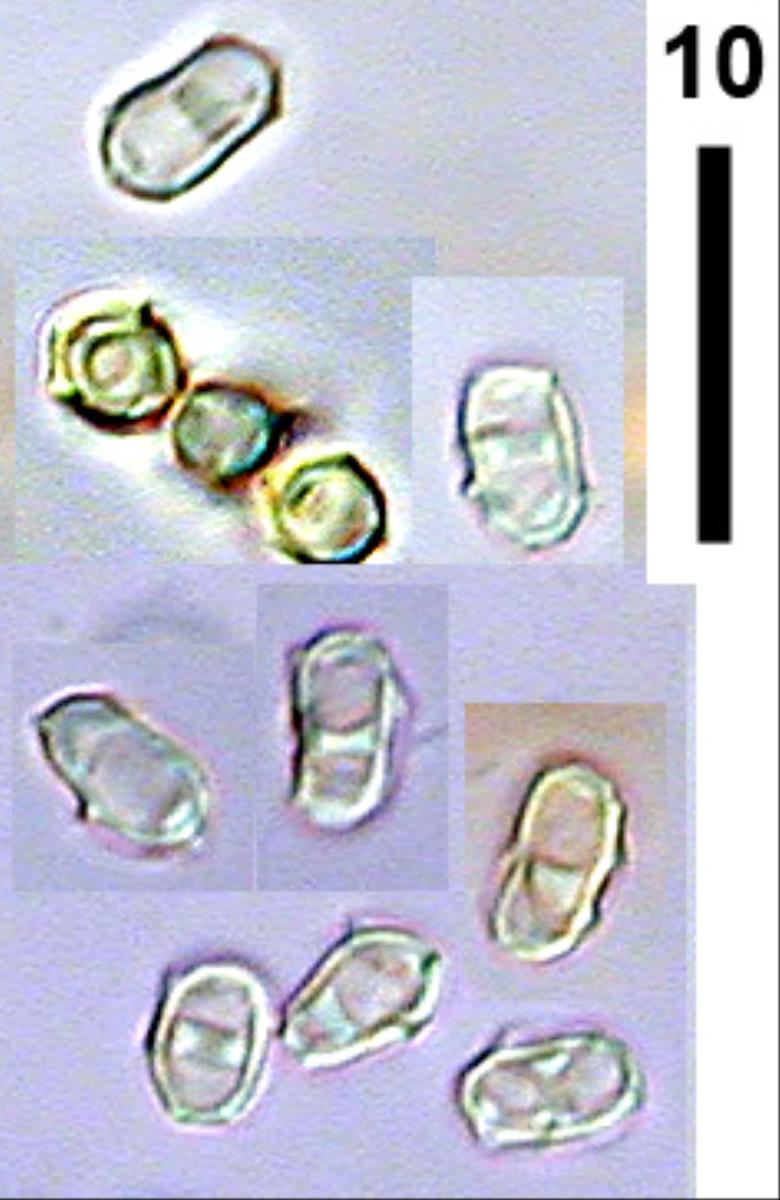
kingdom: Fungi
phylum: Ascomycota
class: Eurotiomycetes
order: Onygenales
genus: Harorepupu
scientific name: Harorepupu aotearoa
